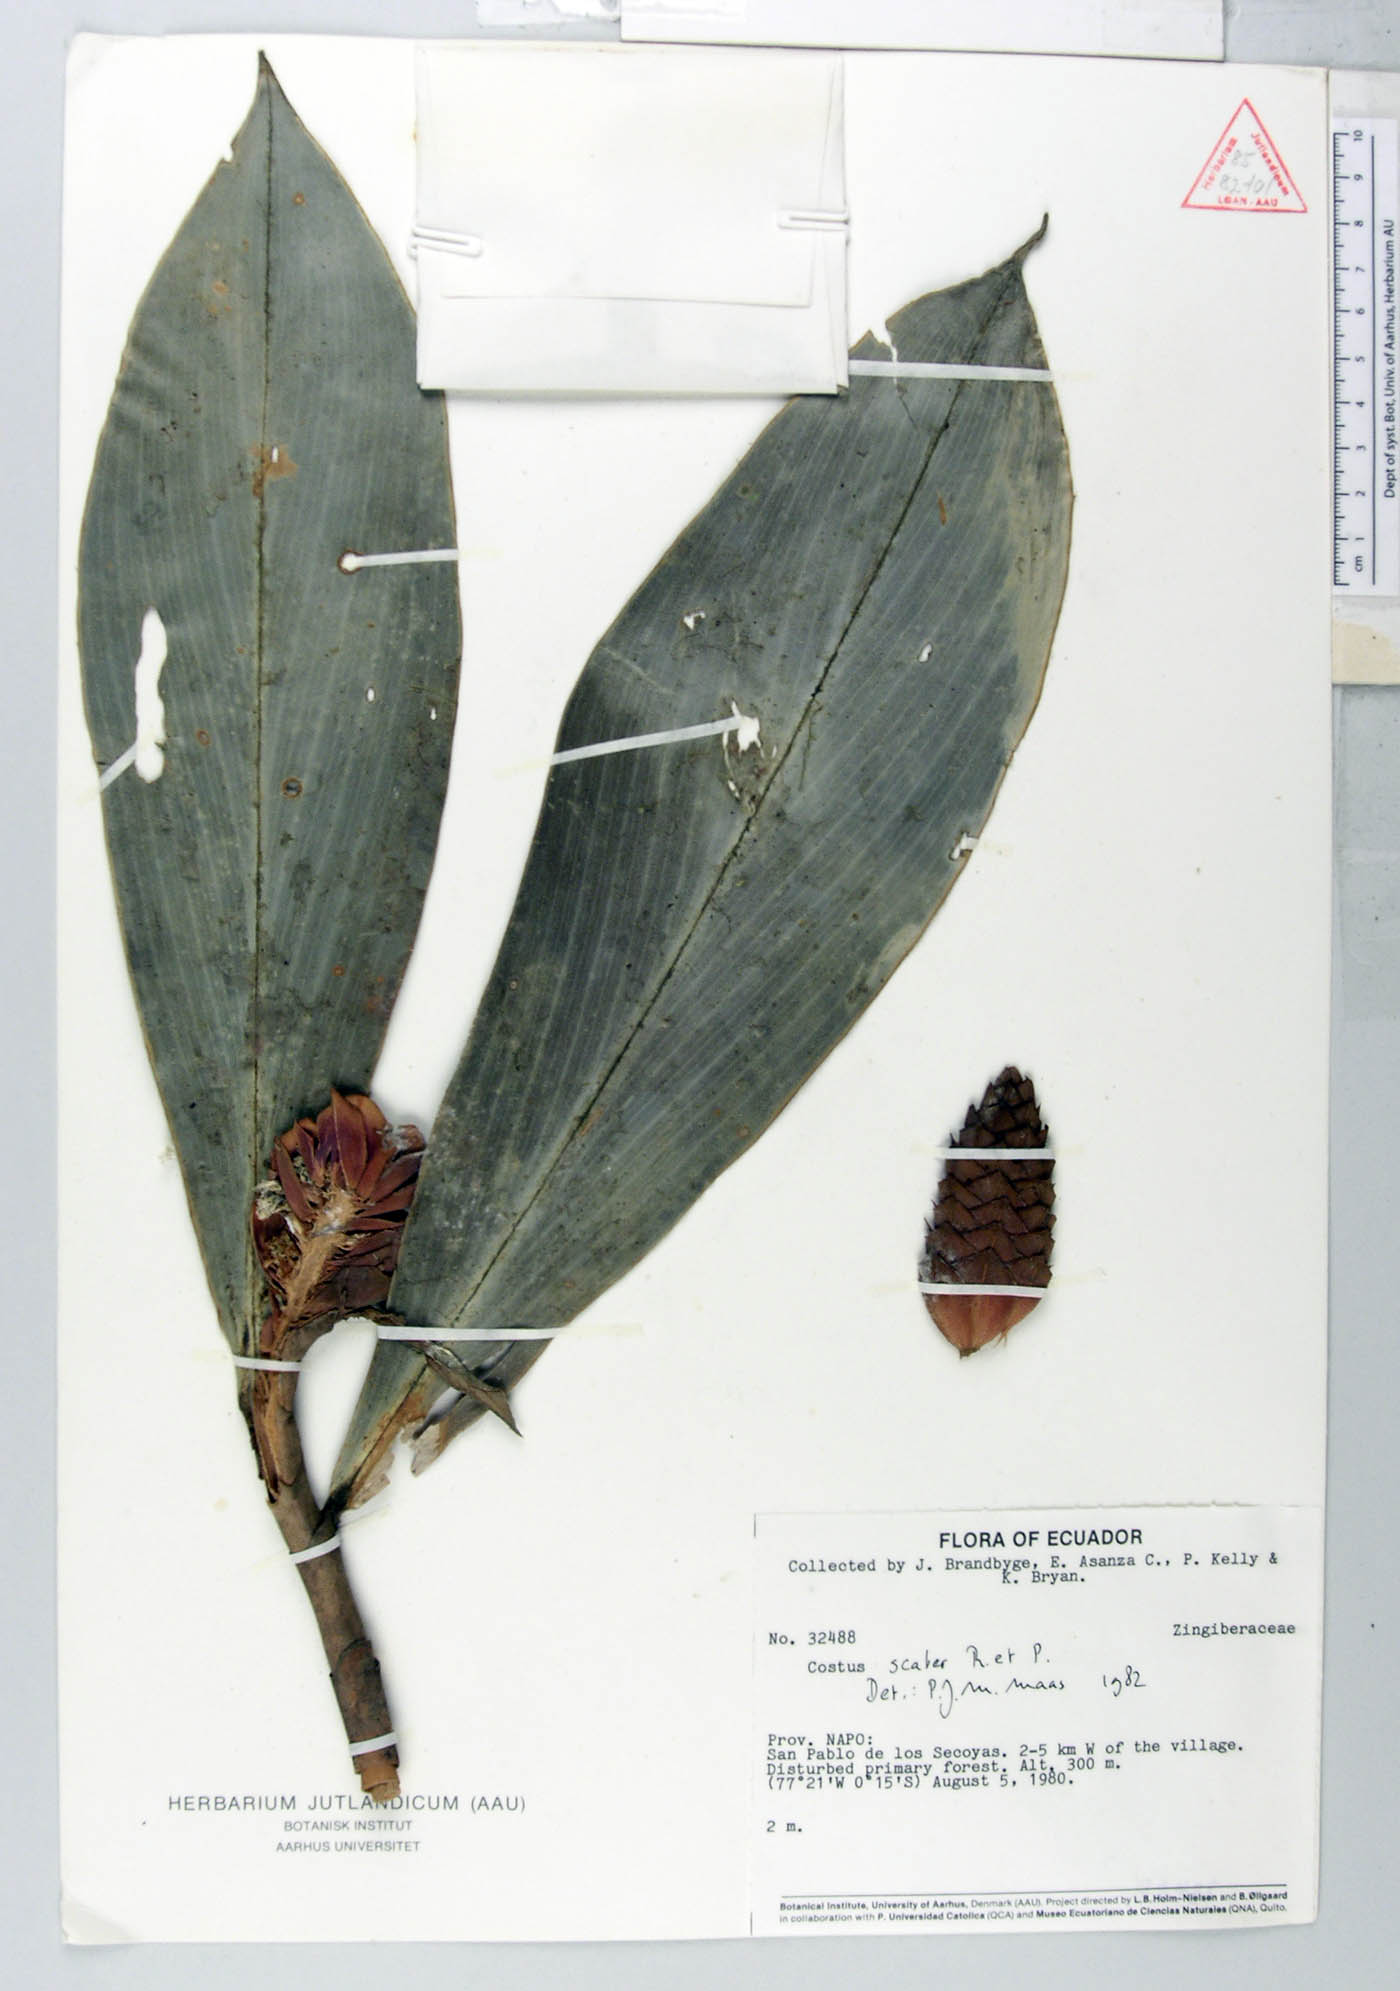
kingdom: Plantae
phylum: Tracheophyta
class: Liliopsida
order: Zingiberales
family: Costaceae
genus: Costus
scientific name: Costus scaber
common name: Spiral head ginger
